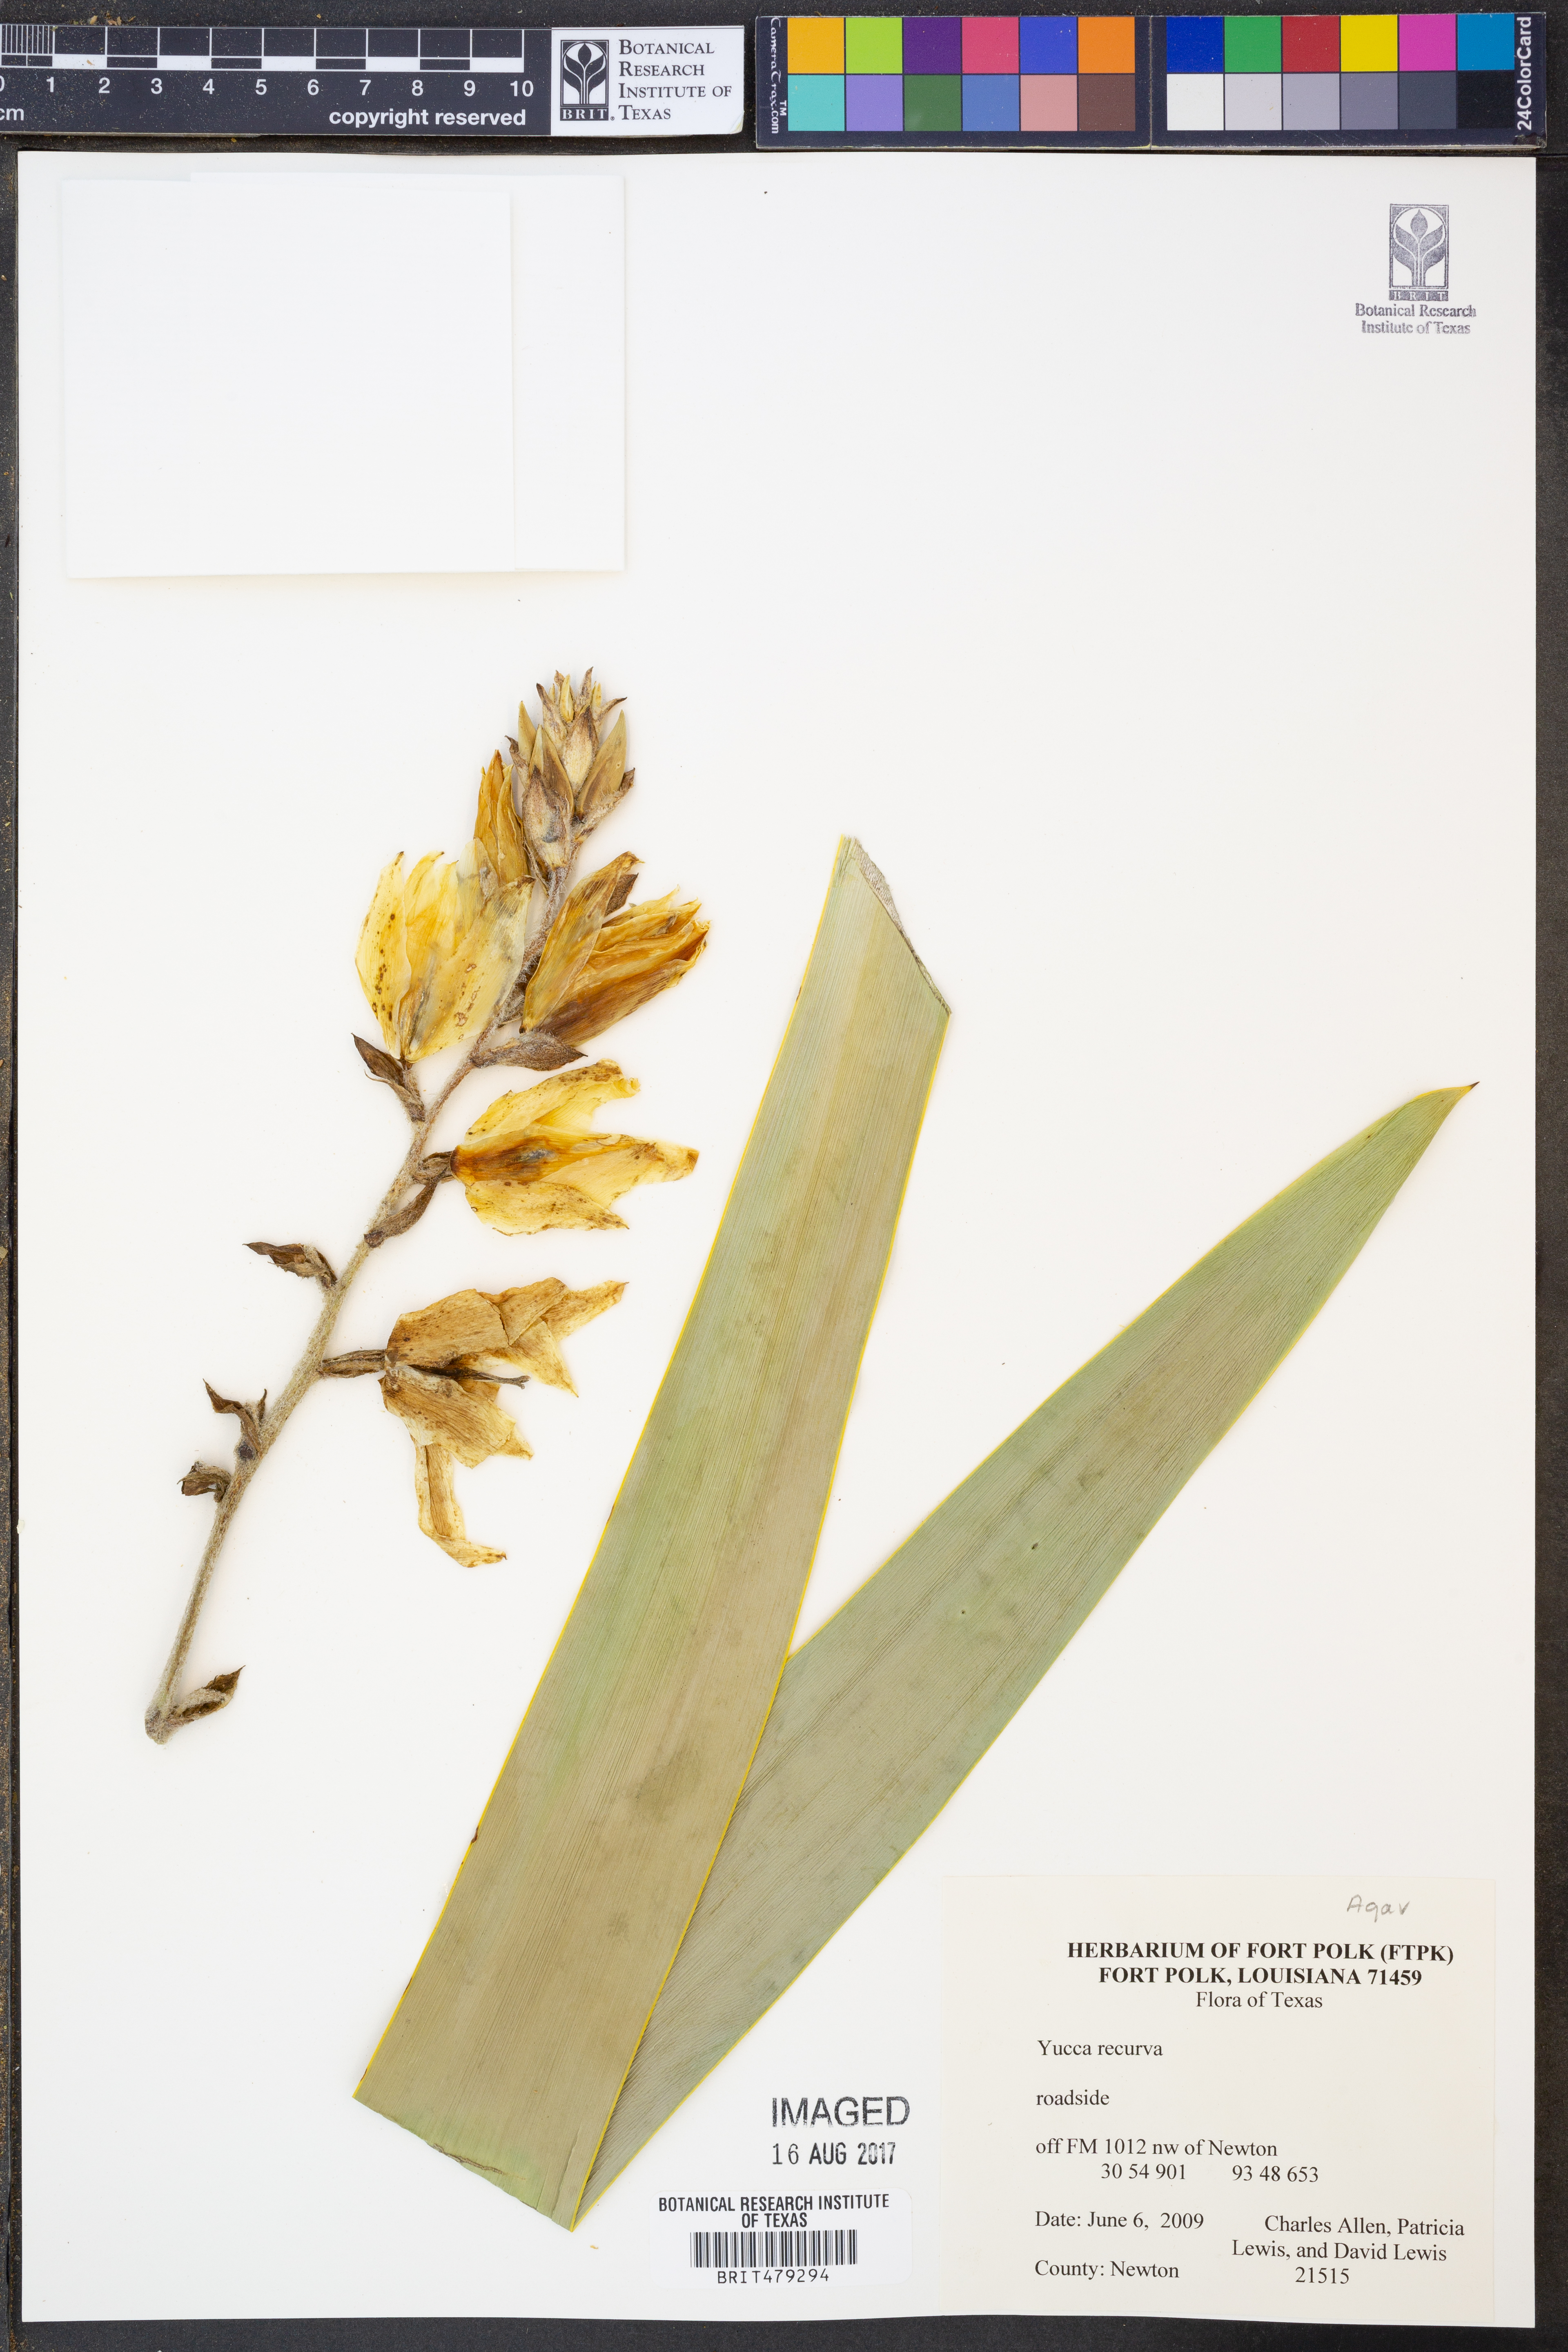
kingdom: Plantae
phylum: Tracheophyta
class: Liliopsida
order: Asparagales
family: Asparagaceae
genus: Yucca
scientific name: Yucca gloriosa
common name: Spanish-dagger
